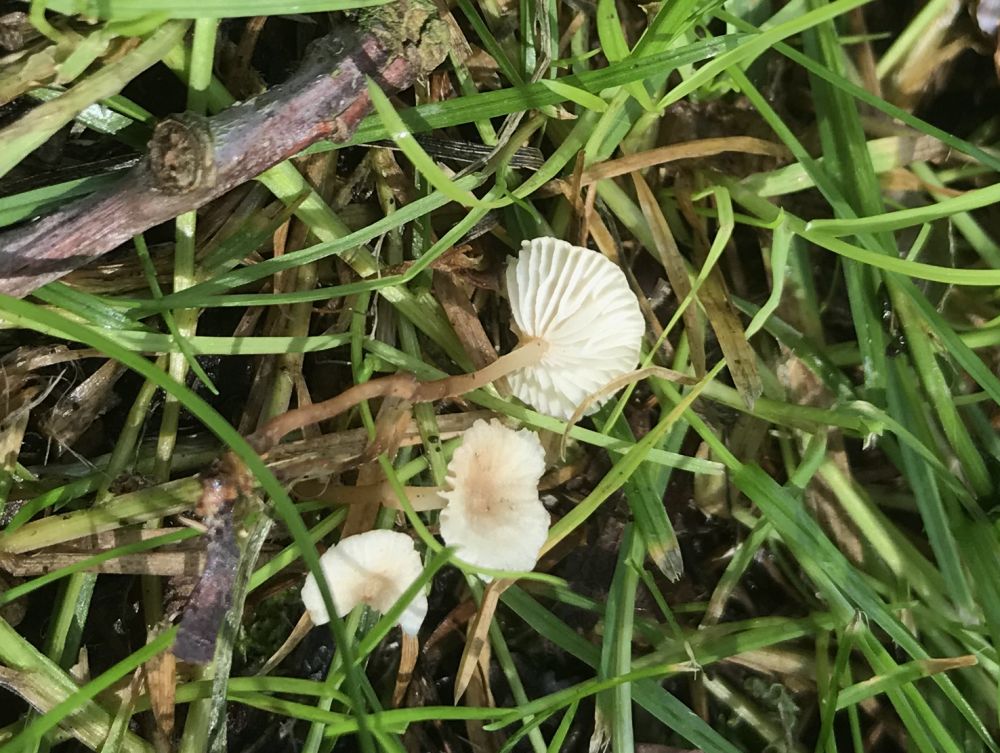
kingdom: Fungi
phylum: Basidiomycota
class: Agaricomycetes
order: Agaricales
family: Omphalotaceae
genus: Marasmiellus
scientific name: Marasmiellus
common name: bruskhat
